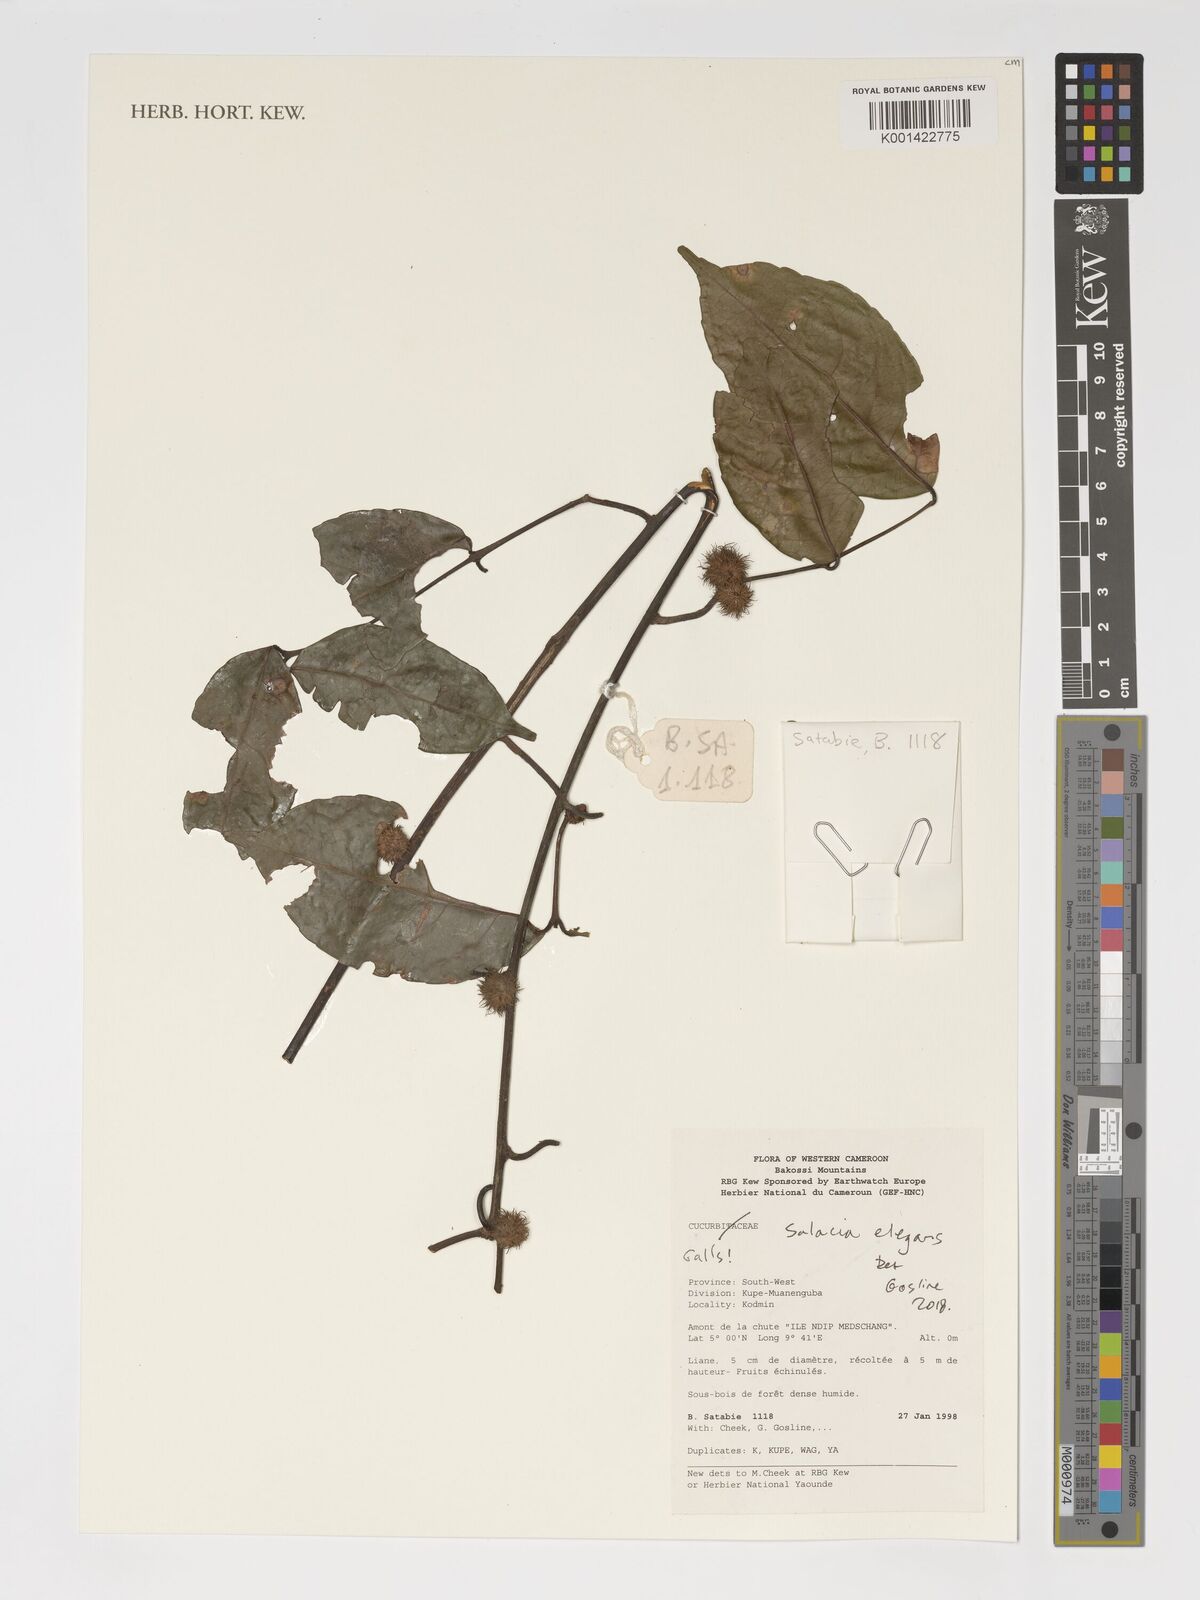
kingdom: Plantae
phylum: Tracheophyta
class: Magnoliopsida
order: Celastrales
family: Celastraceae
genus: Salacia
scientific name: Salacia elegans
